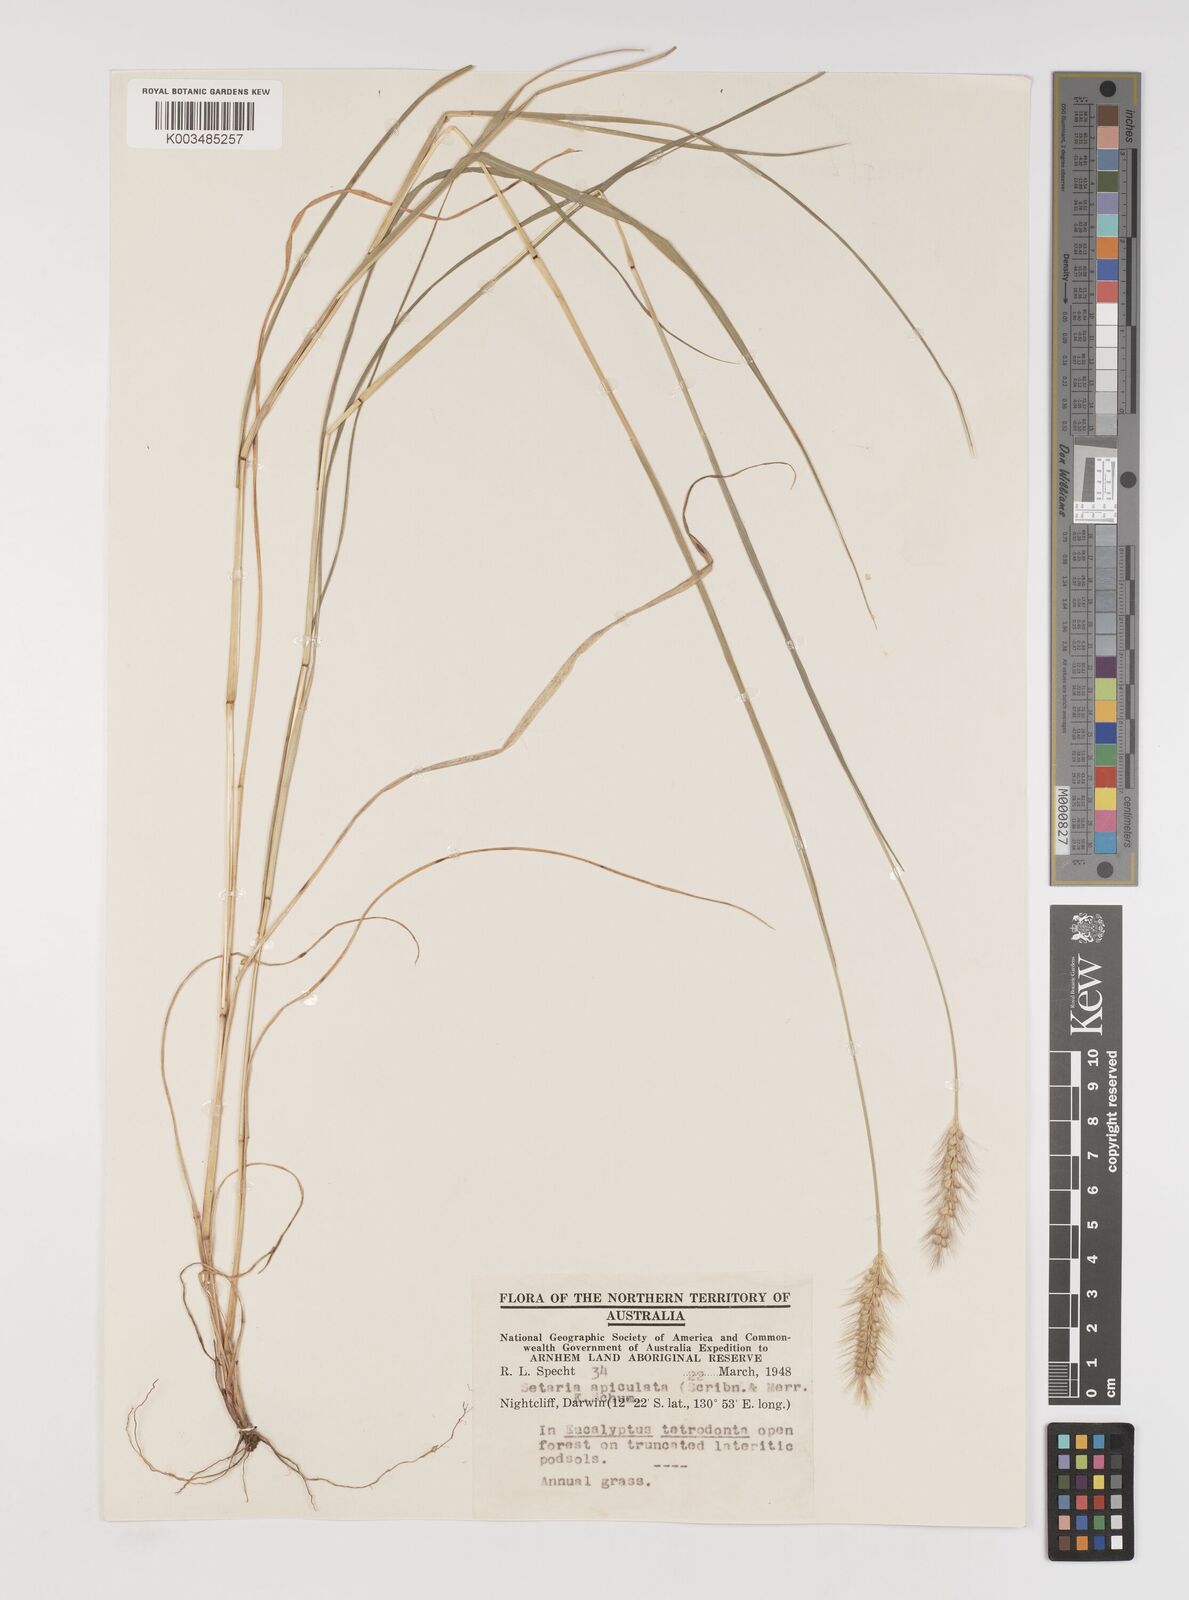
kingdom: Plantae
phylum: Tracheophyta
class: Liliopsida
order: Poales
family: Poaceae
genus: Setaria
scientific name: Setaria apiculata
